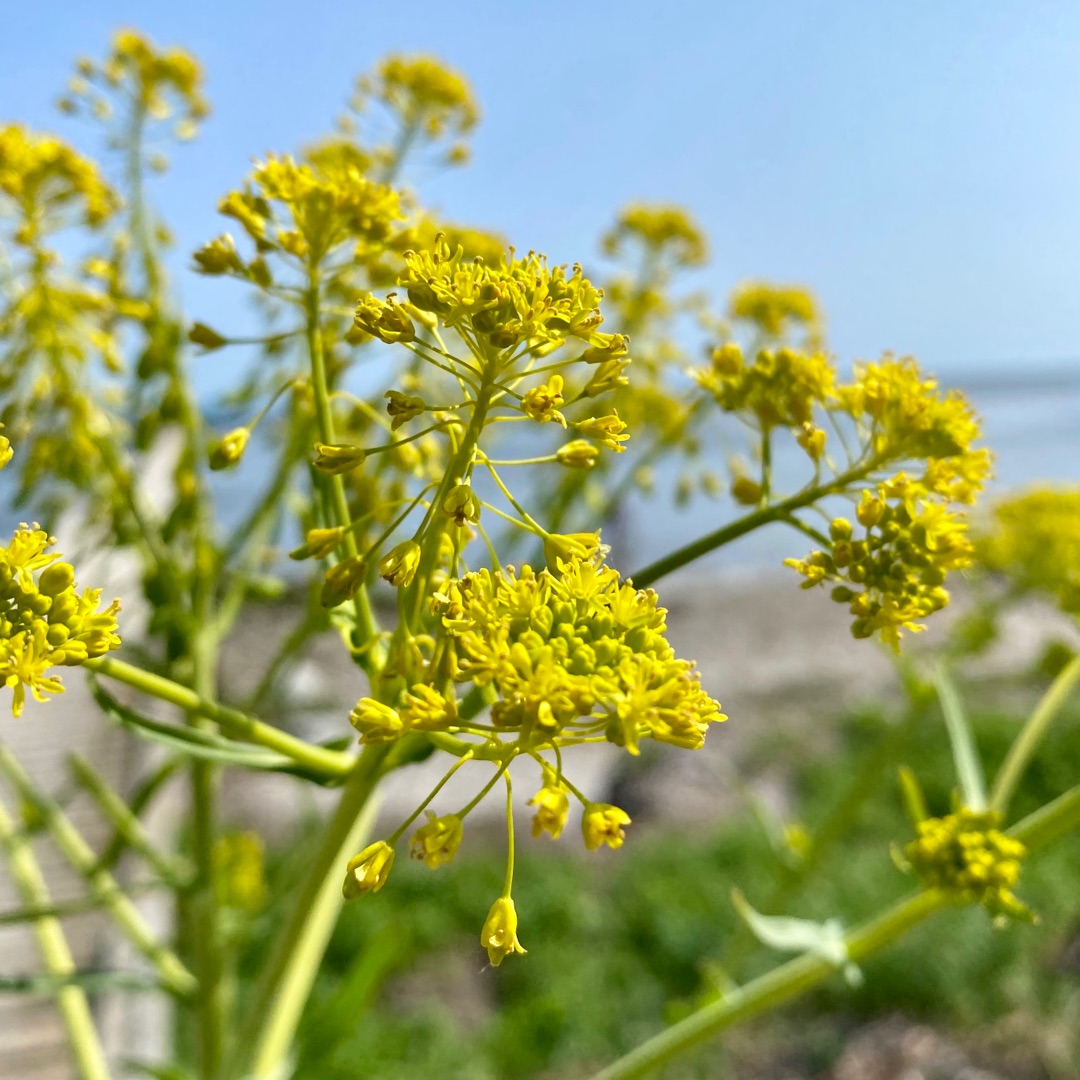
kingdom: Plantae
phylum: Tracheophyta
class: Magnoliopsida
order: Brassicales
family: Brassicaceae
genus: Isatis
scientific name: Isatis tinctoria
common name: Farve-vajd
